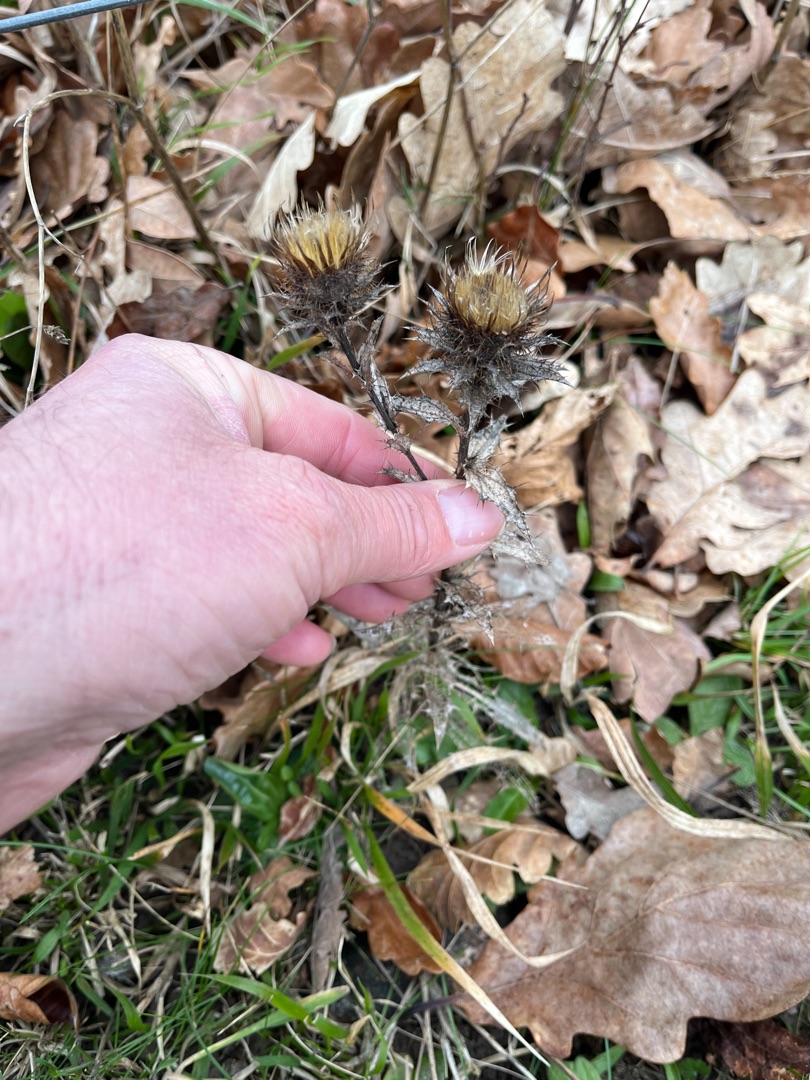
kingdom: Plantae
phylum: Tracheophyta
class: Magnoliopsida
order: Asterales
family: Asteraceae
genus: Carlina
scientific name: Carlina vulgaris
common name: Bakketidsel
